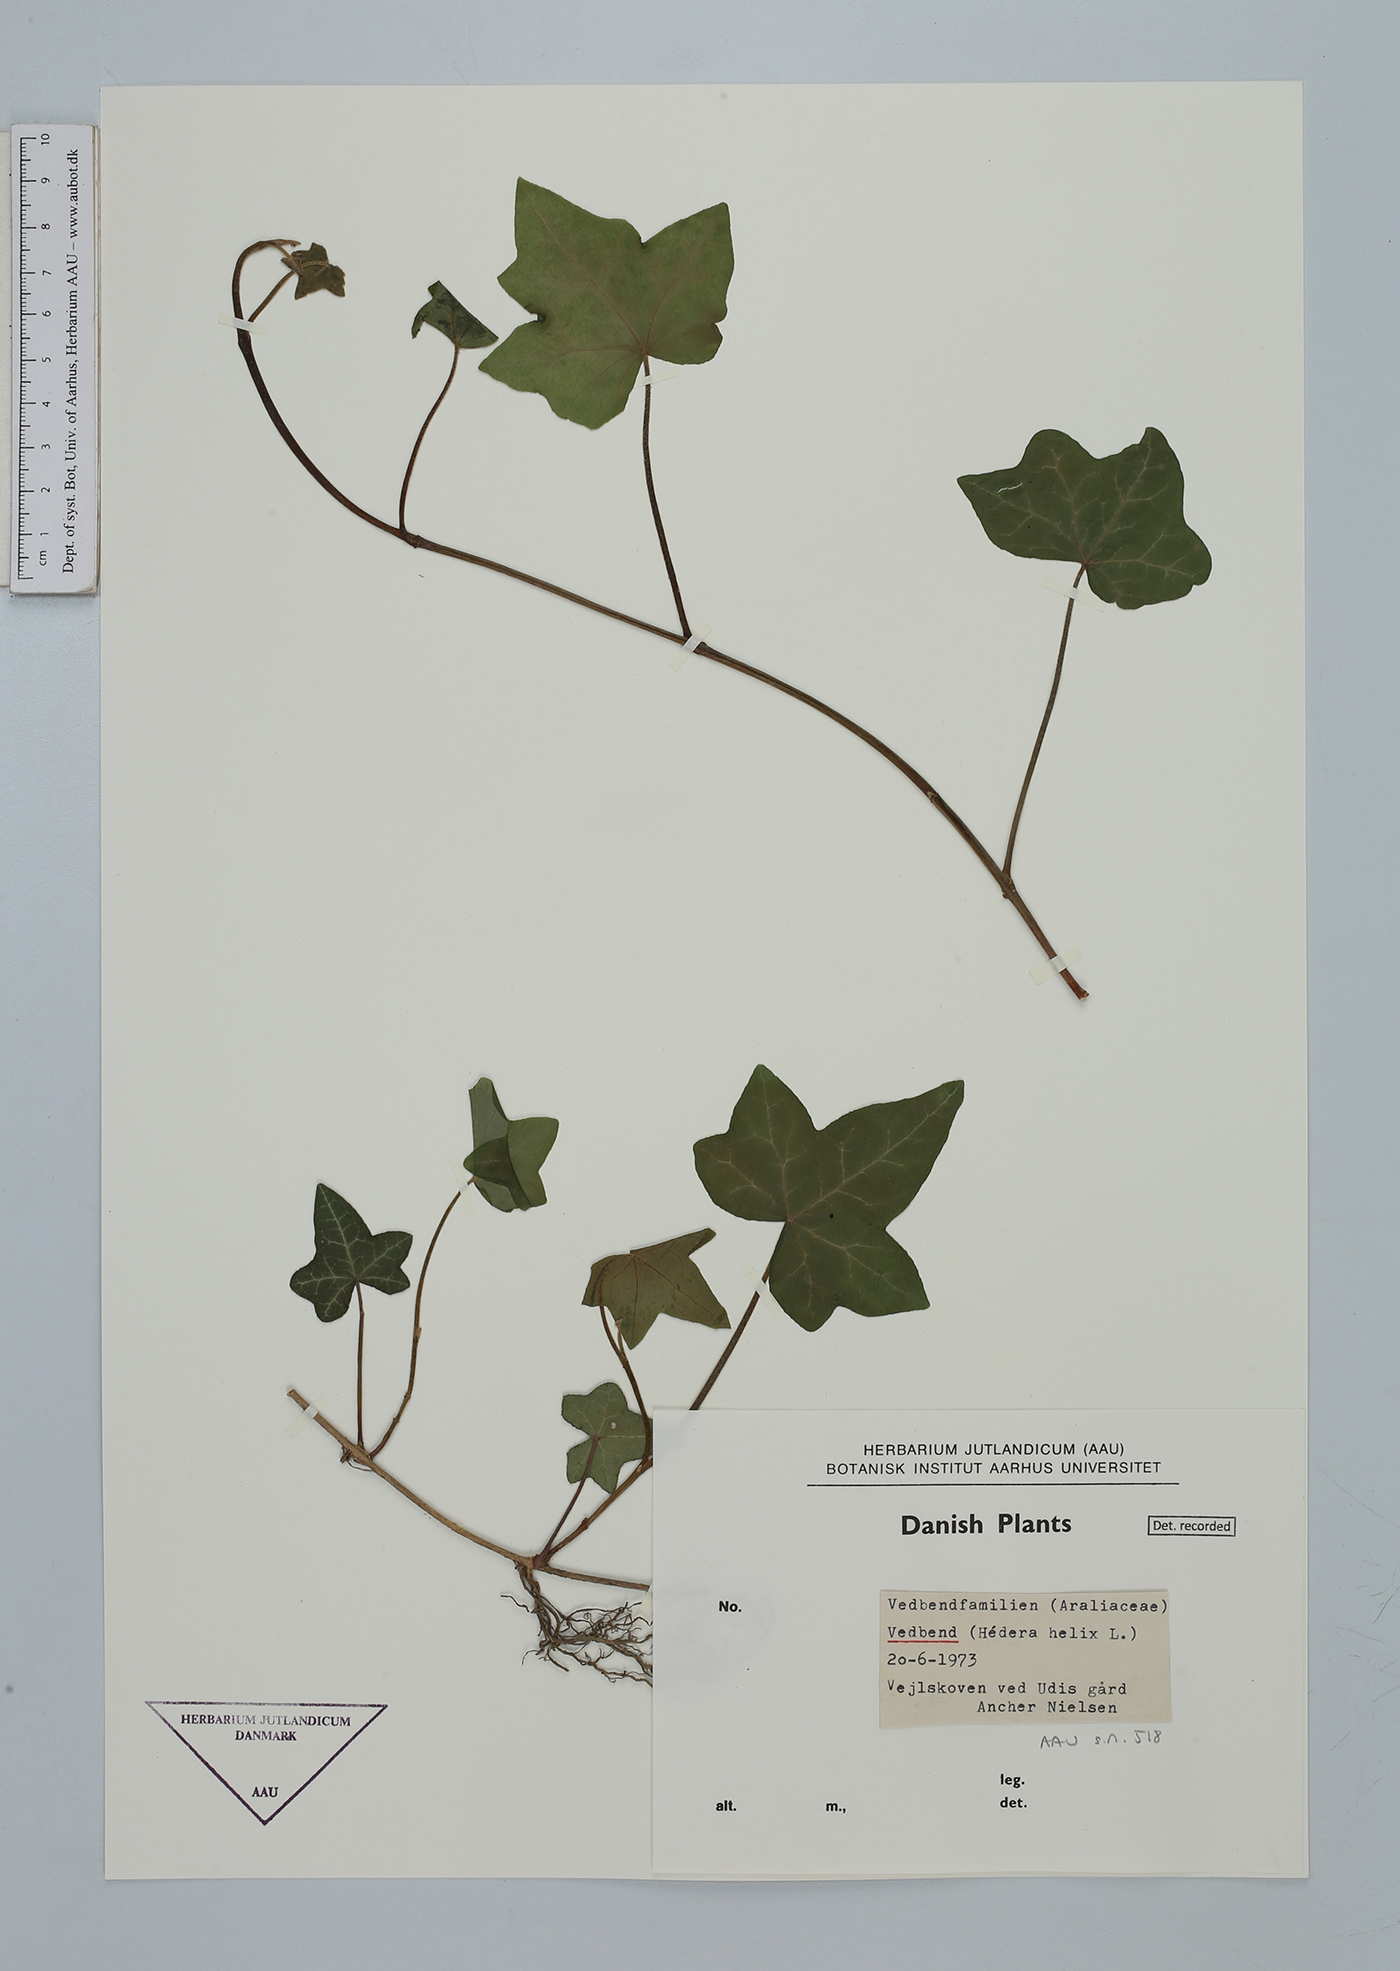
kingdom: Plantae
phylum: Tracheophyta
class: Magnoliopsida
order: Apiales
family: Araliaceae
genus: Hedera
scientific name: Hedera helix
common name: Ivy
